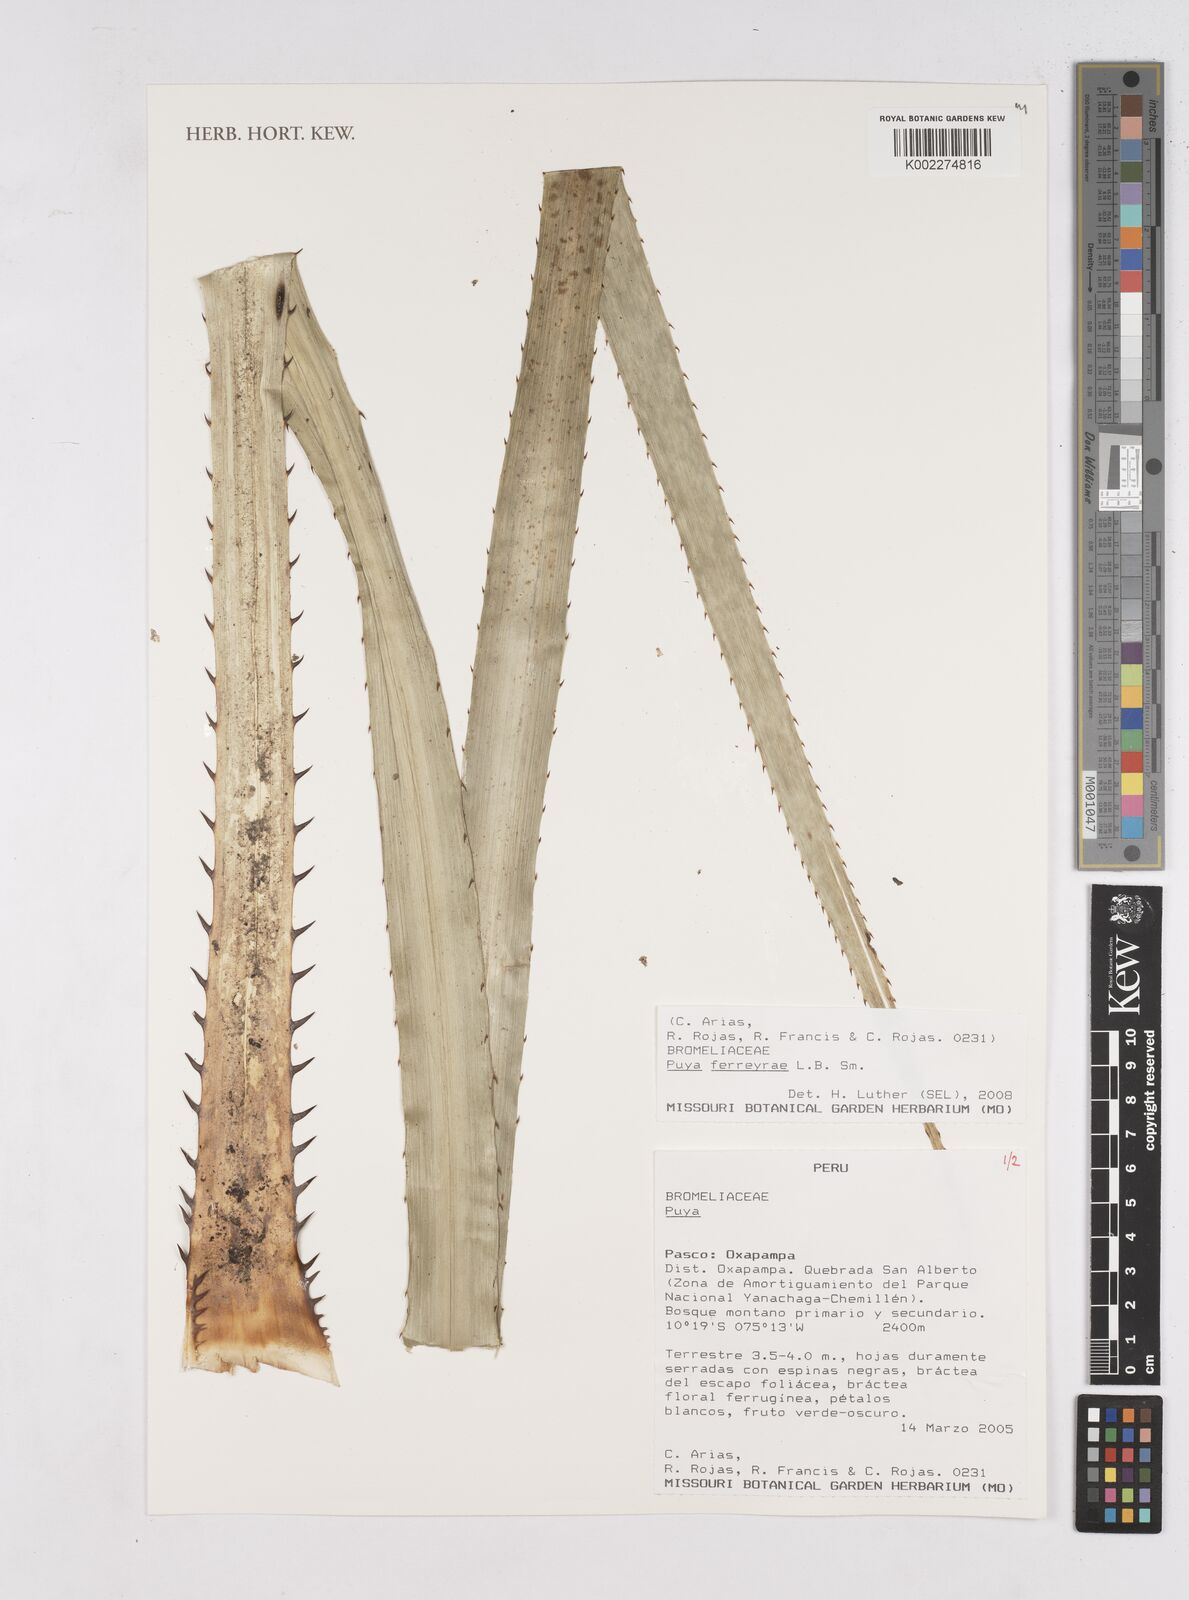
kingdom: Plantae
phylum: Tracheophyta
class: Liliopsida
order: Poales
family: Bromeliaceae
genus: Puya
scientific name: Puya ferreyrae
